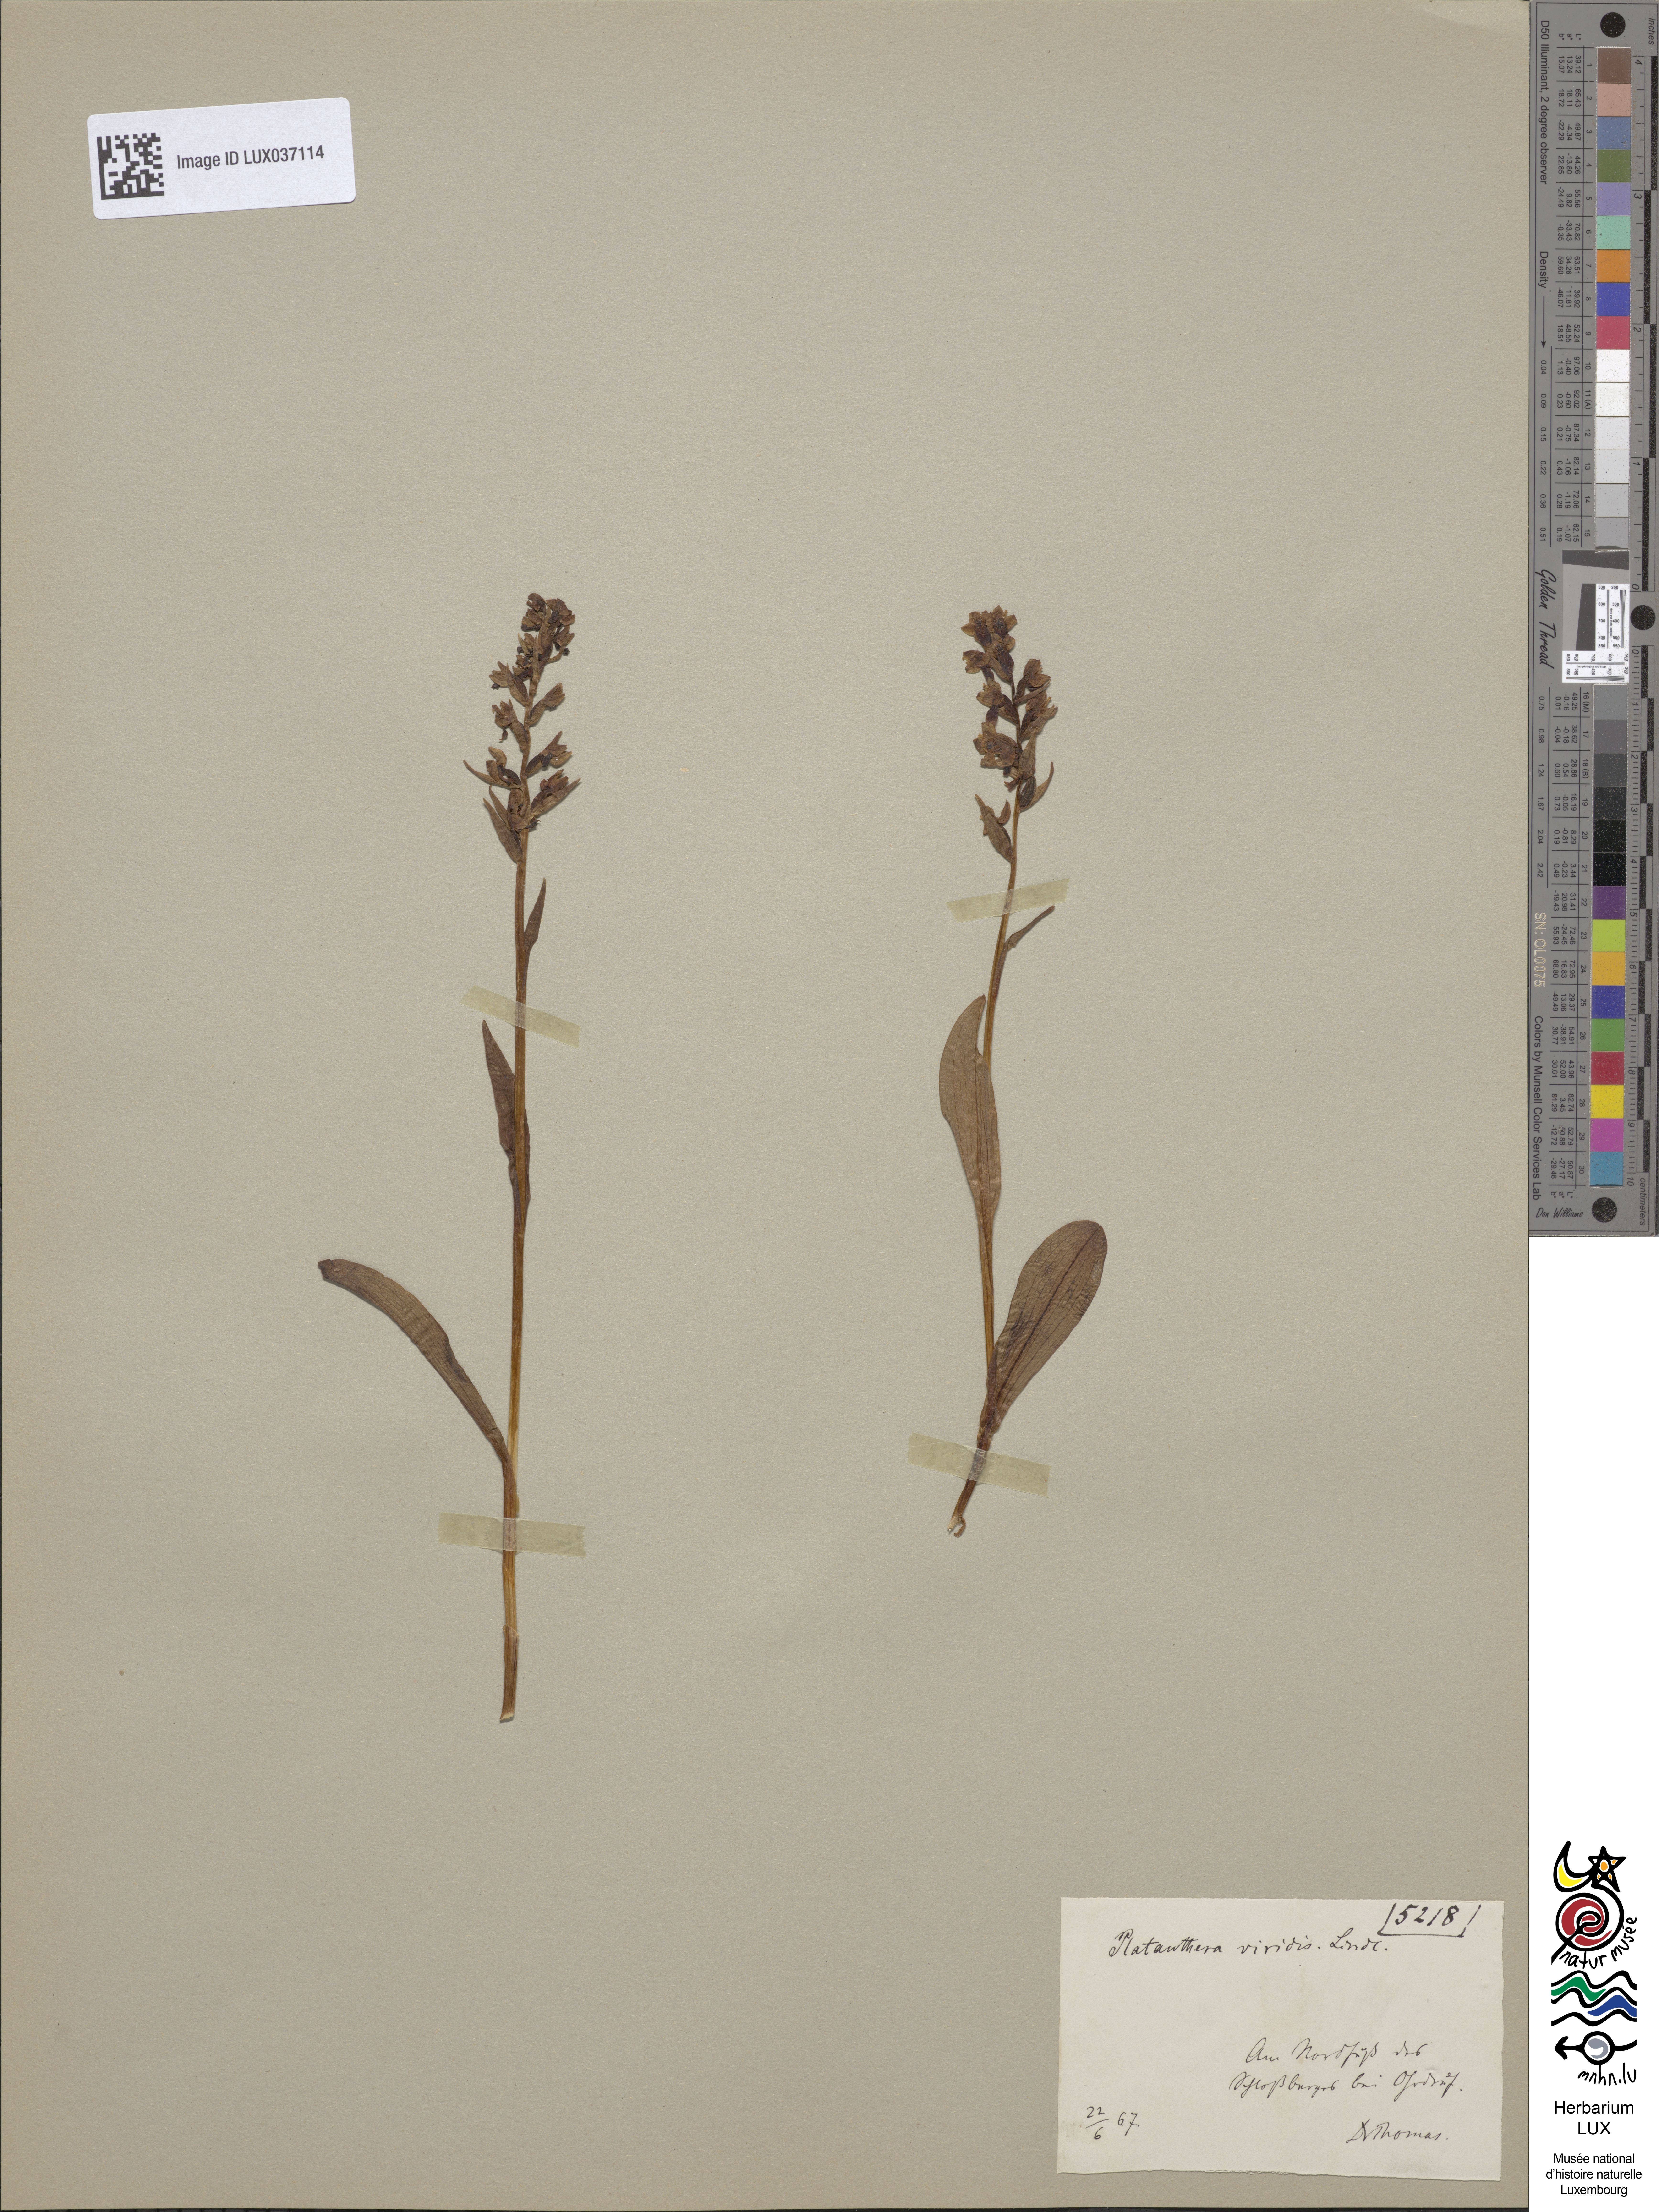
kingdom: Plantae
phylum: Tracheophyta
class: Liliopsida
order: Asparagales
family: Orchidaceae
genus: Dactylorhiza
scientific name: Dactylorhiza viridis
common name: Longbract frog orchid
